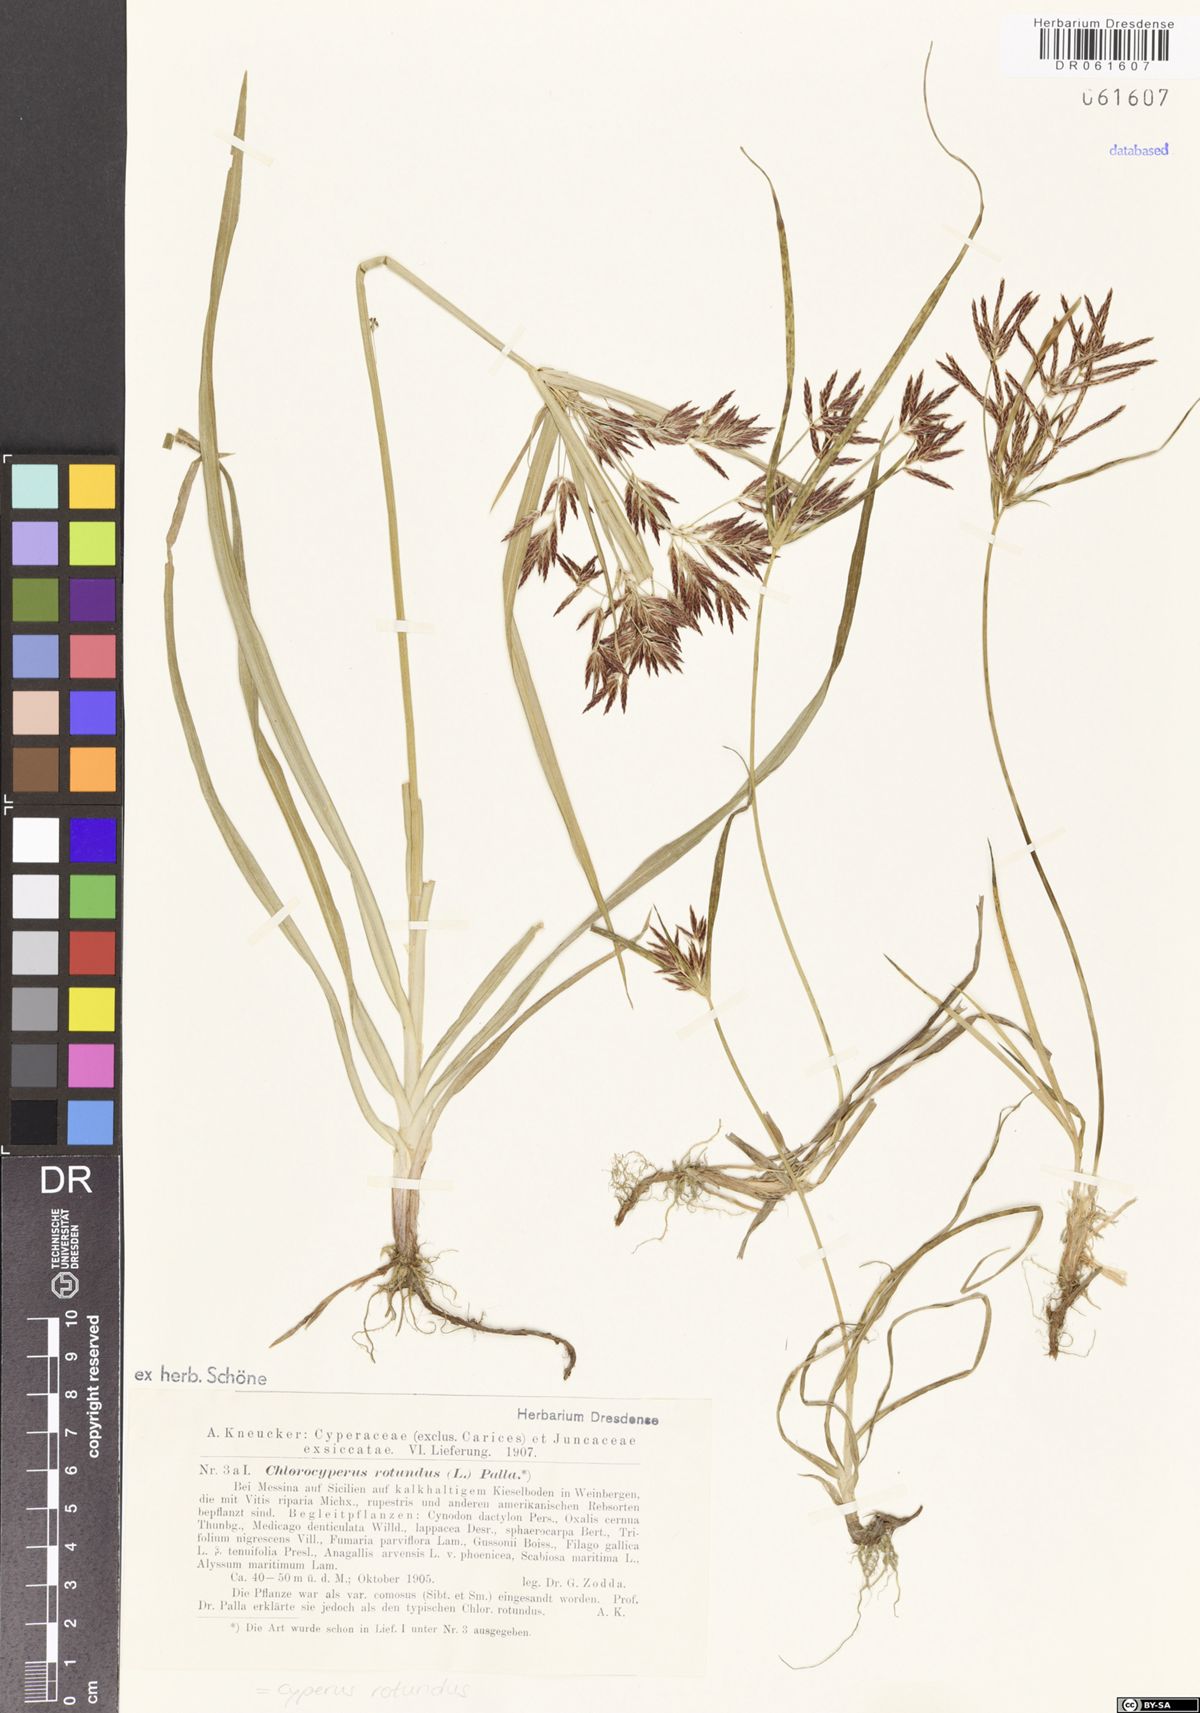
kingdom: Plantae
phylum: Tracheophyta
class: Liliopsida
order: Poales
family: Cyperaceae
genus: Cyperus
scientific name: Cyperus rotundus
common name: Nutgrass
